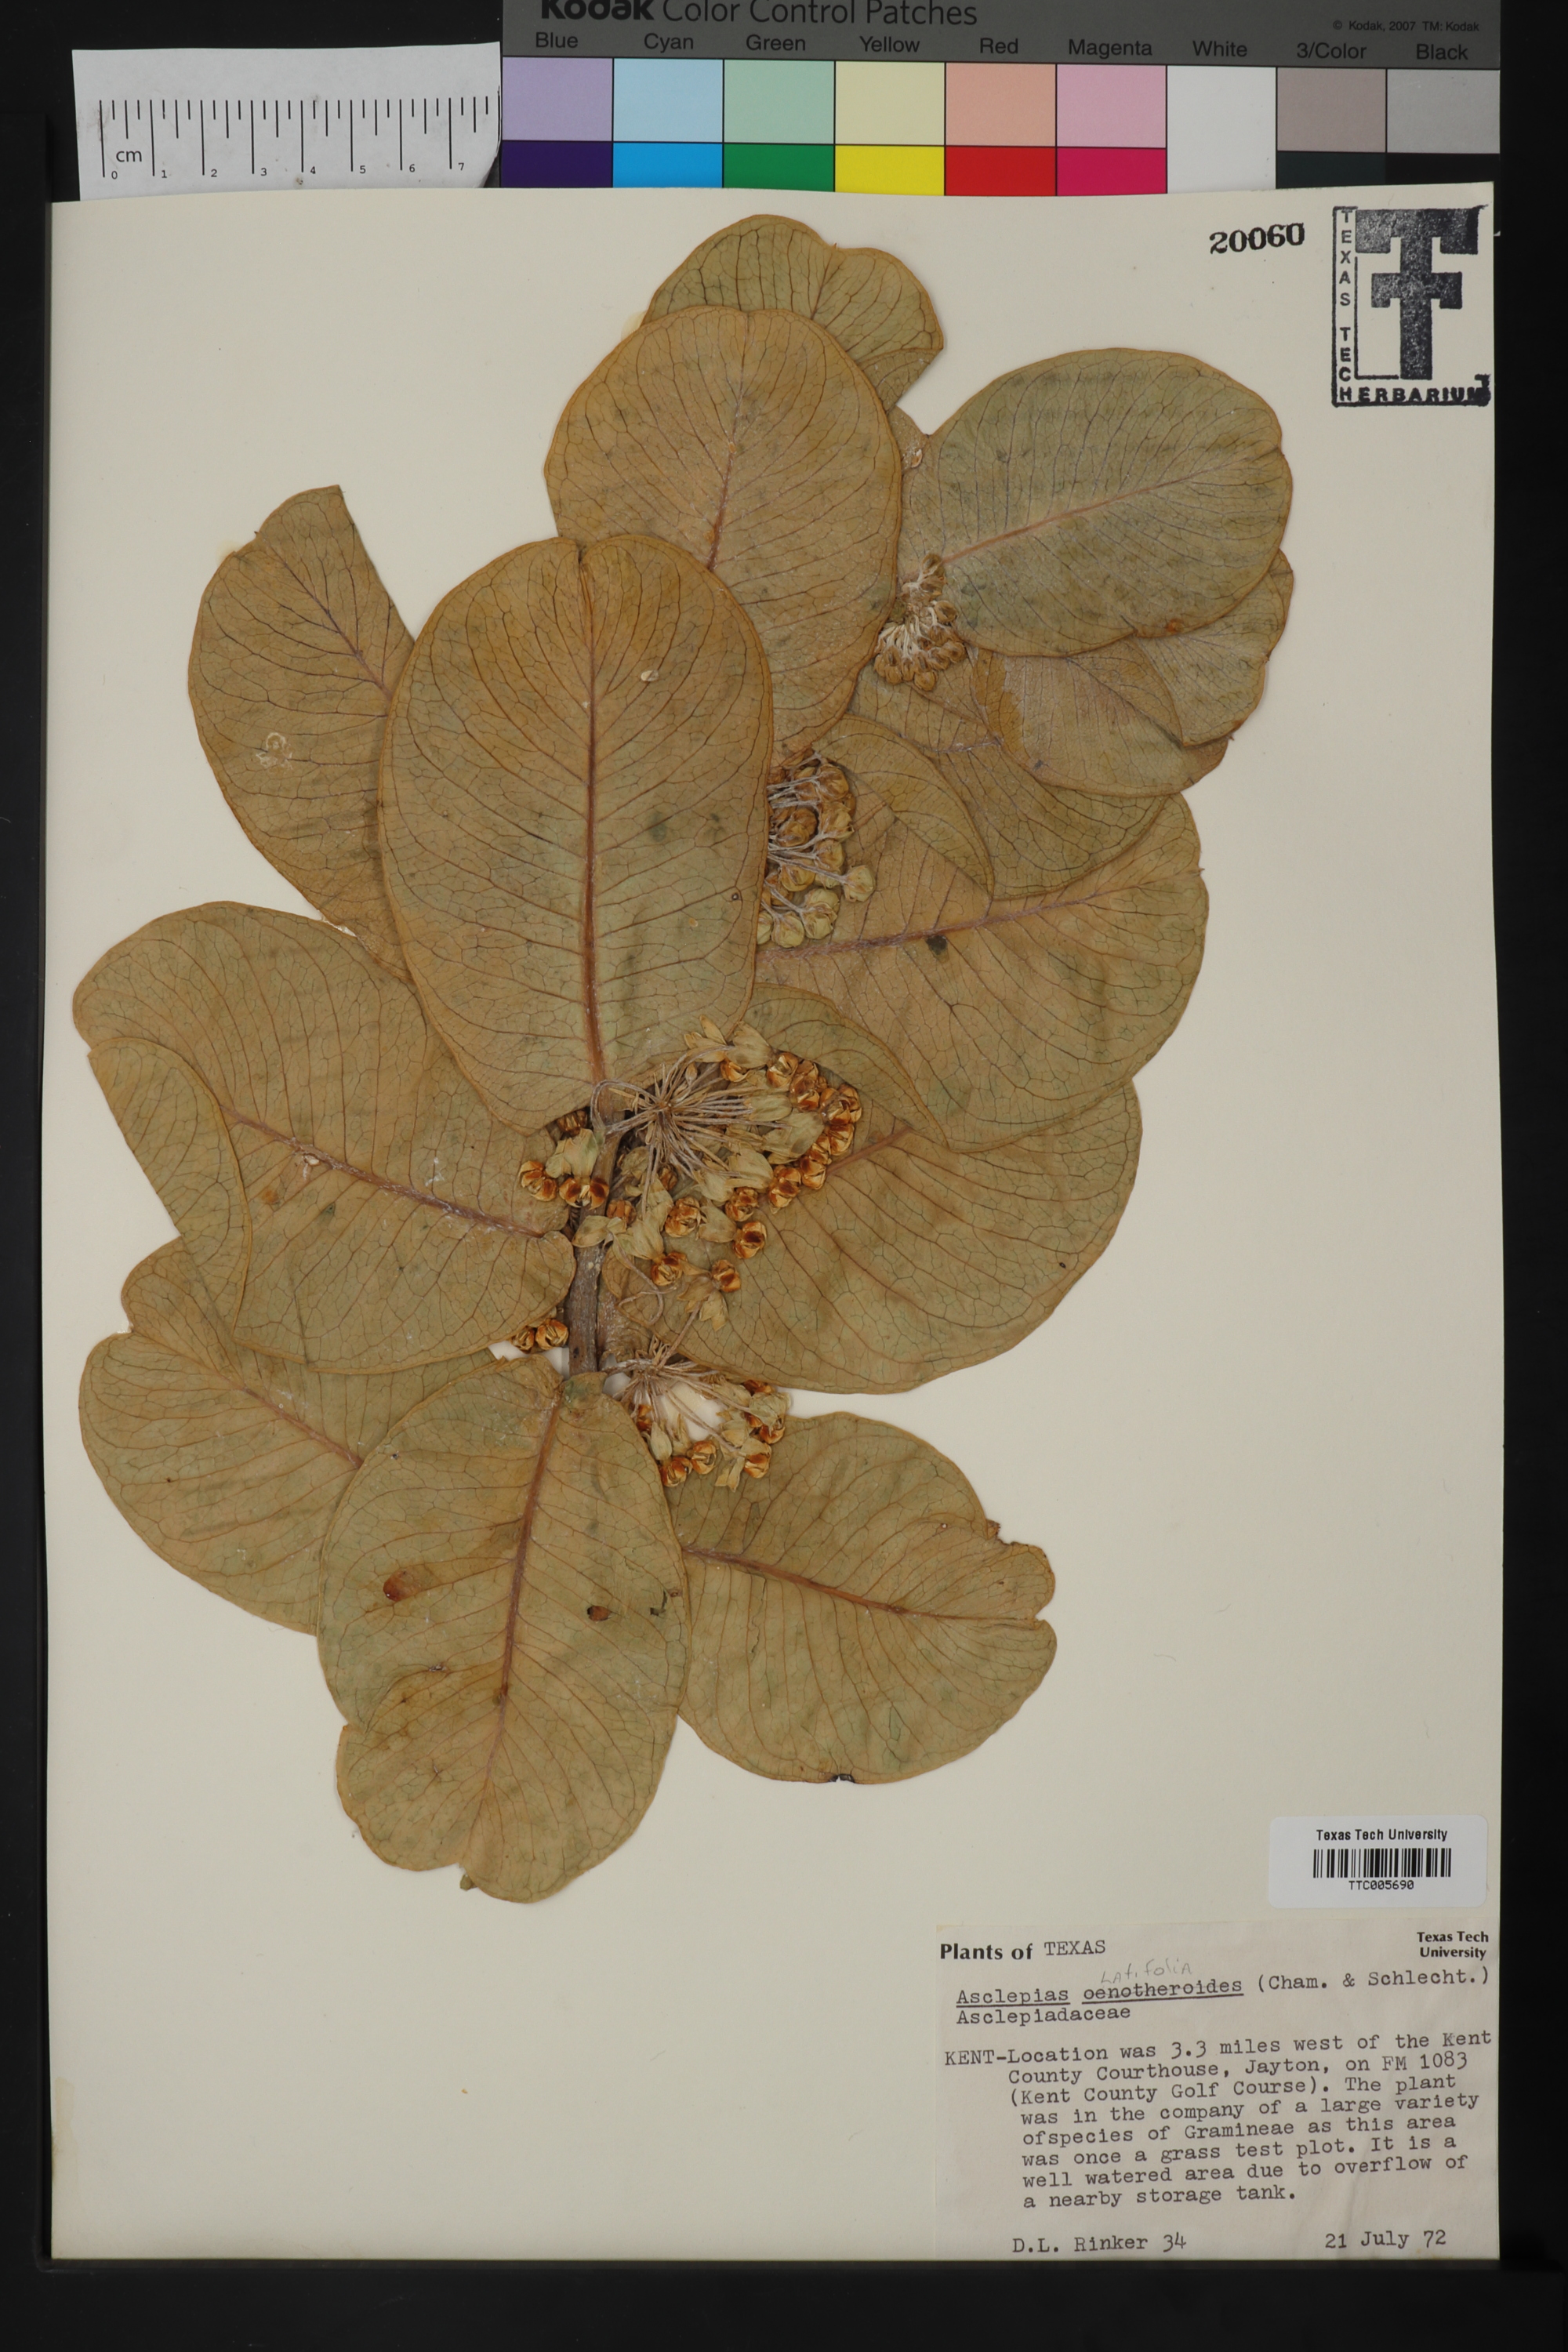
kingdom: Plantae
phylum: Tracheophyta
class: Magnoliopsida
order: Gentianales
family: Apocynaceae
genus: Asclepias
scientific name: Asclepias latifolia
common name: Broadleaf milkweed
